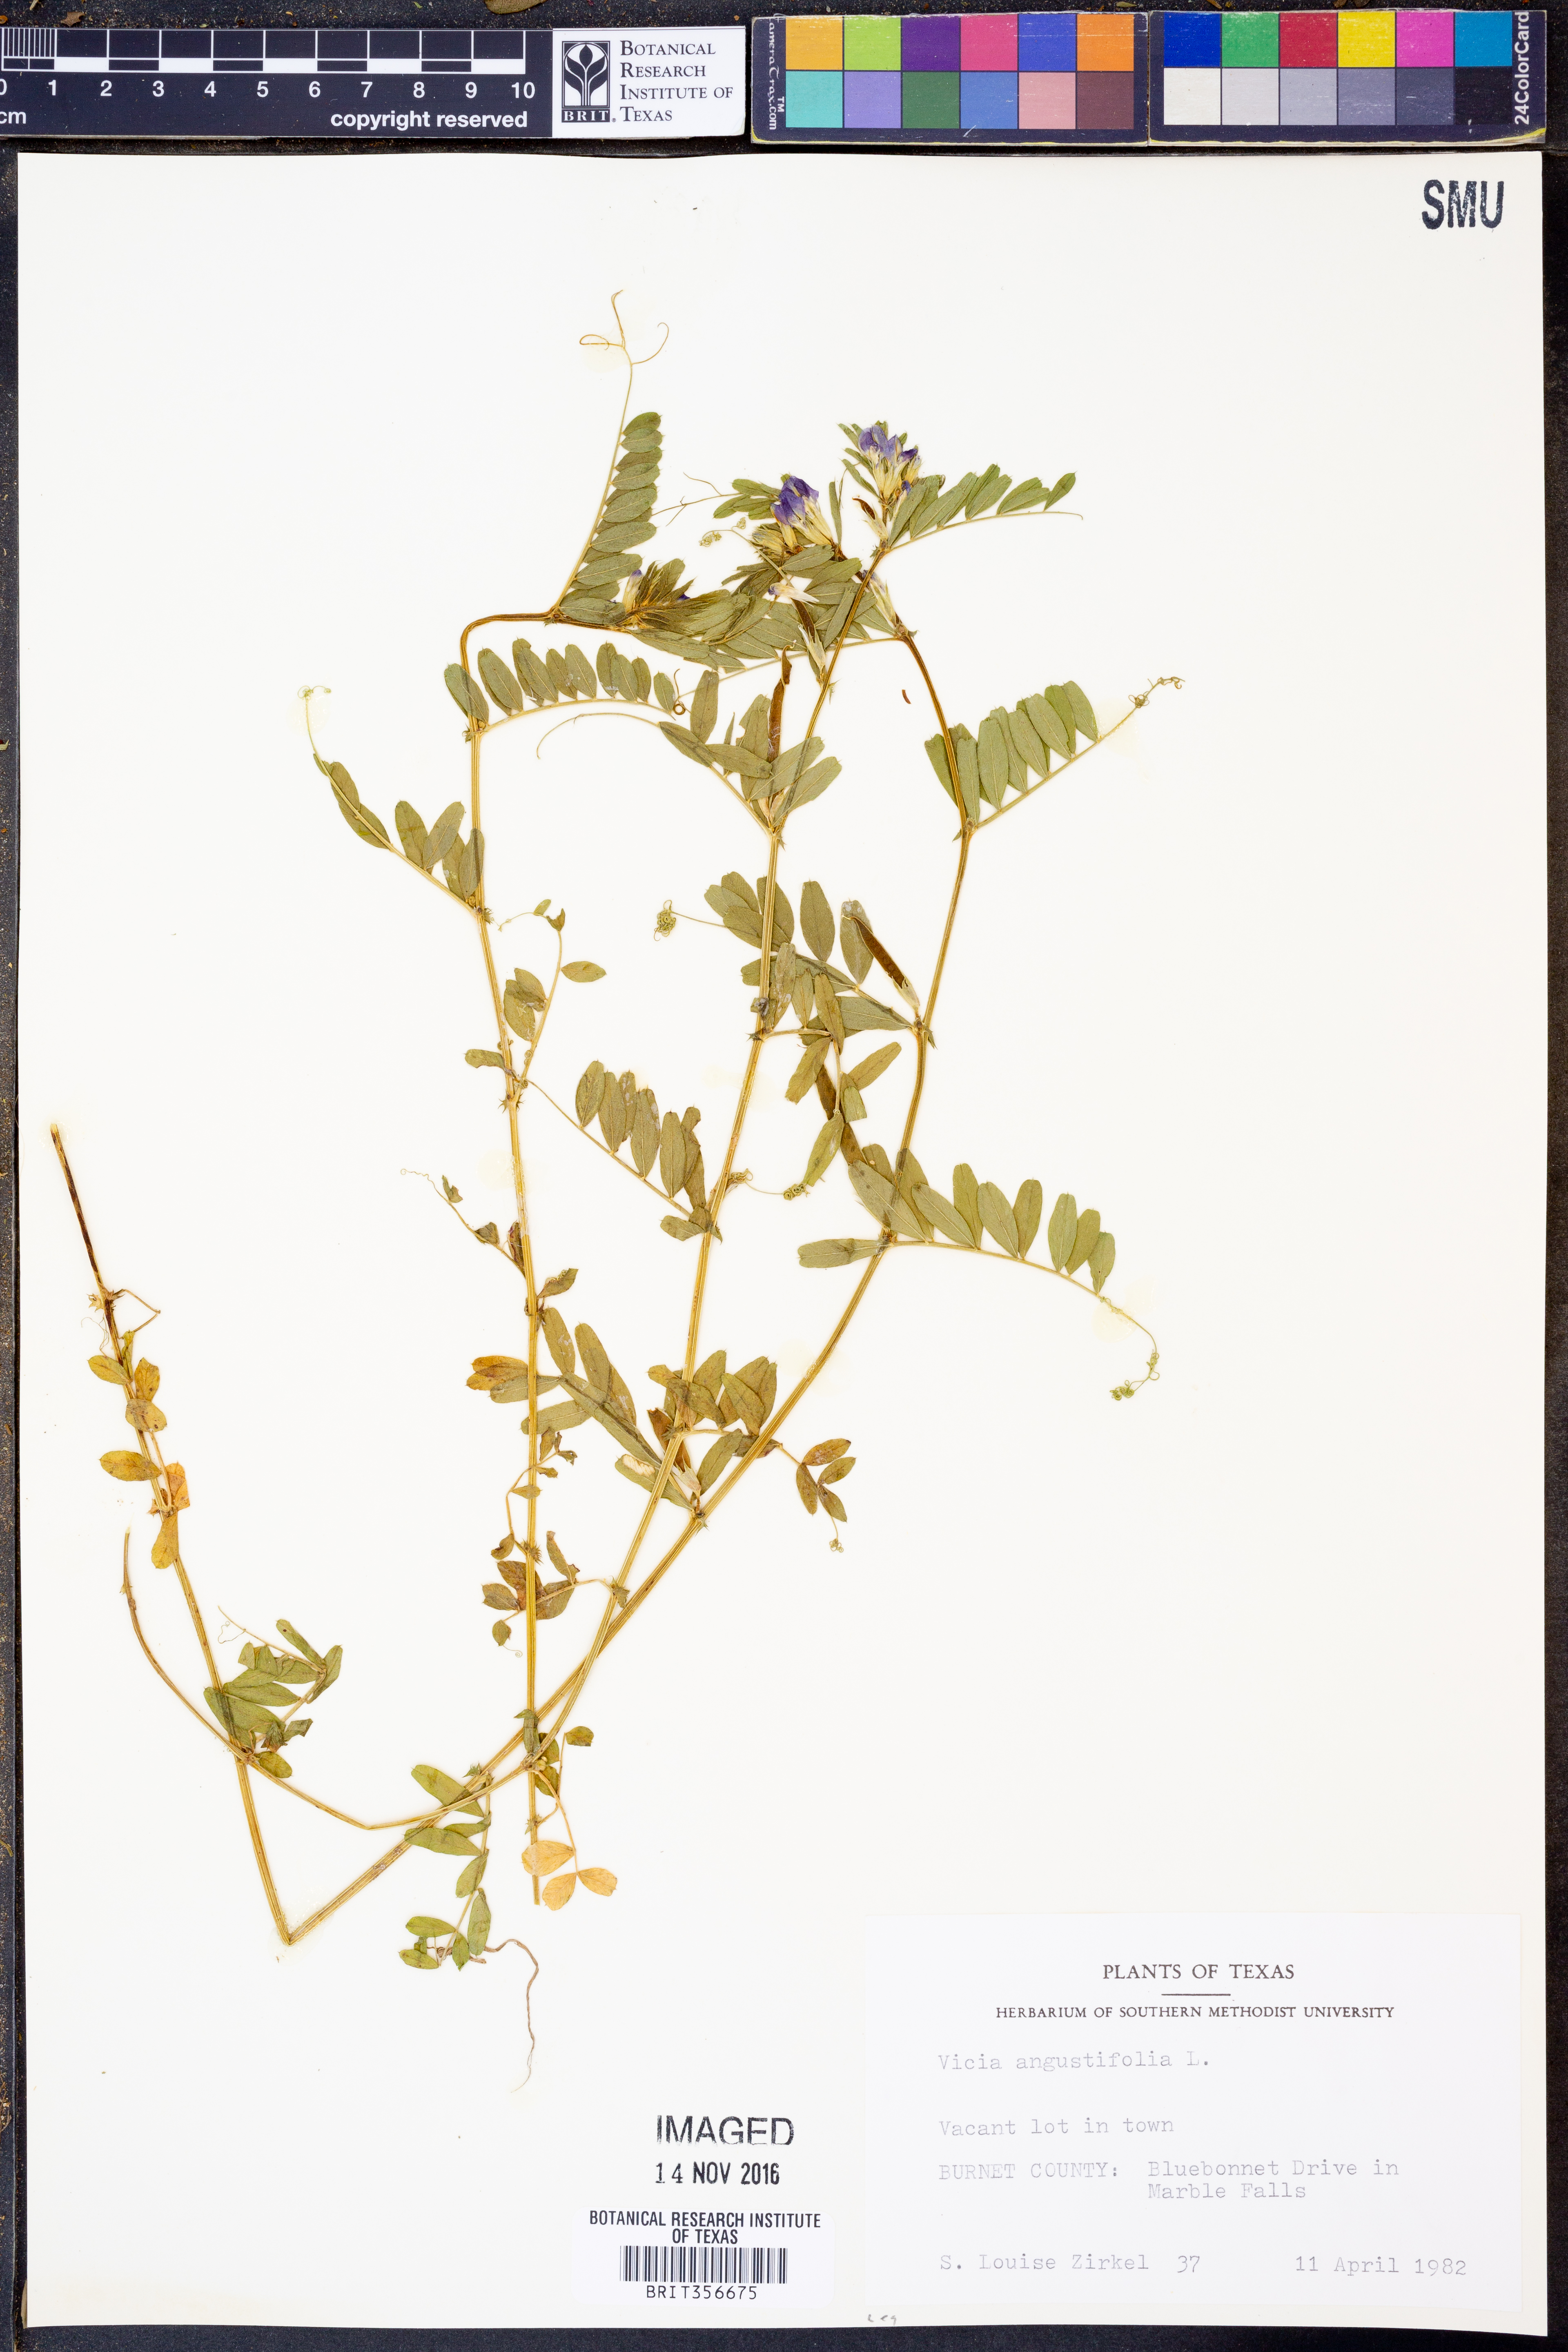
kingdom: Plantae
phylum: Tracheophyta
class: Magnoliopsida
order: Fabales
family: Fabaceae
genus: Vicia
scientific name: Vicia sativa
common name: Garden vetch
